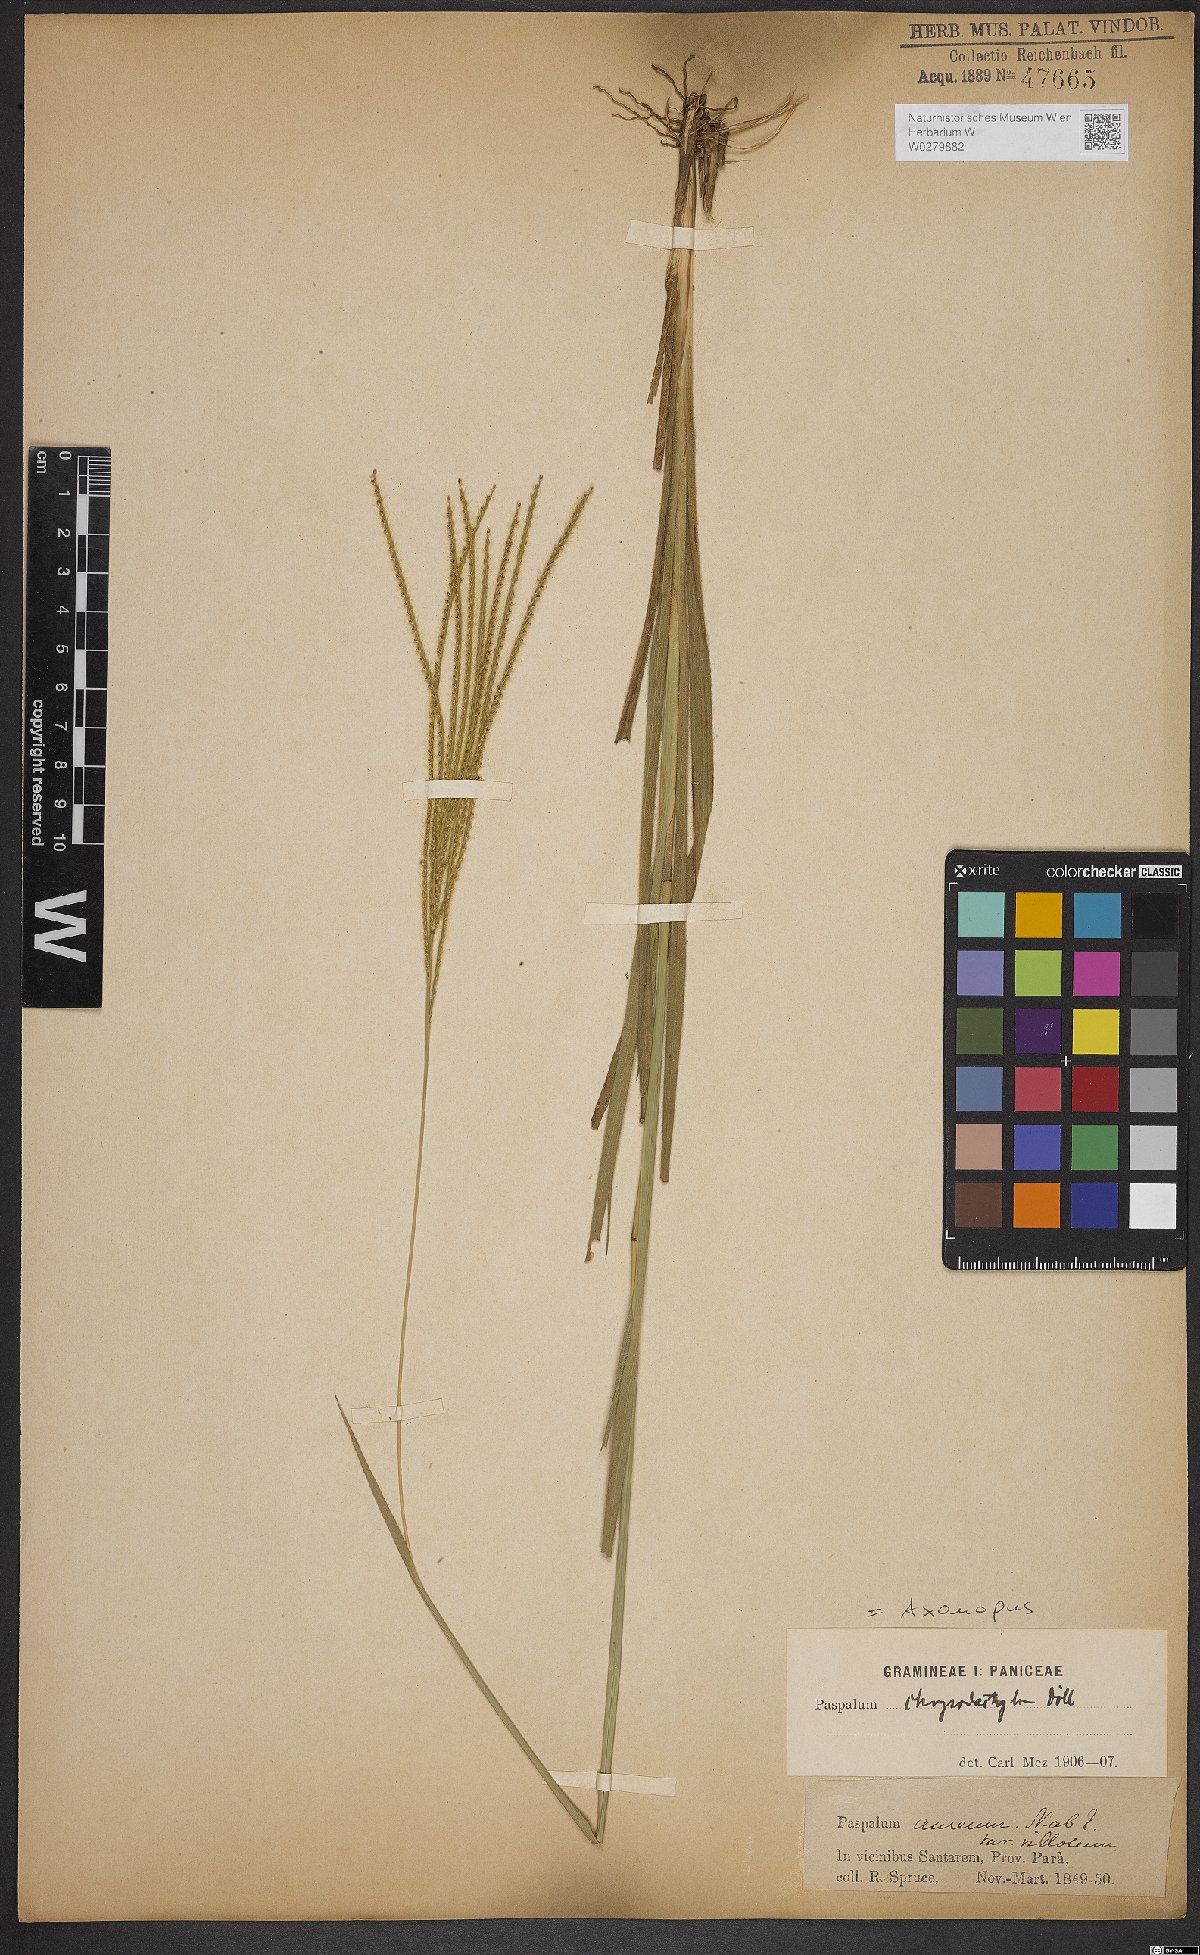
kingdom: Plantae
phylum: Tracheophyta
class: Liliopsida
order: Poales
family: Poaceae
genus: Axonopus
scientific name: Axonopus aureus
